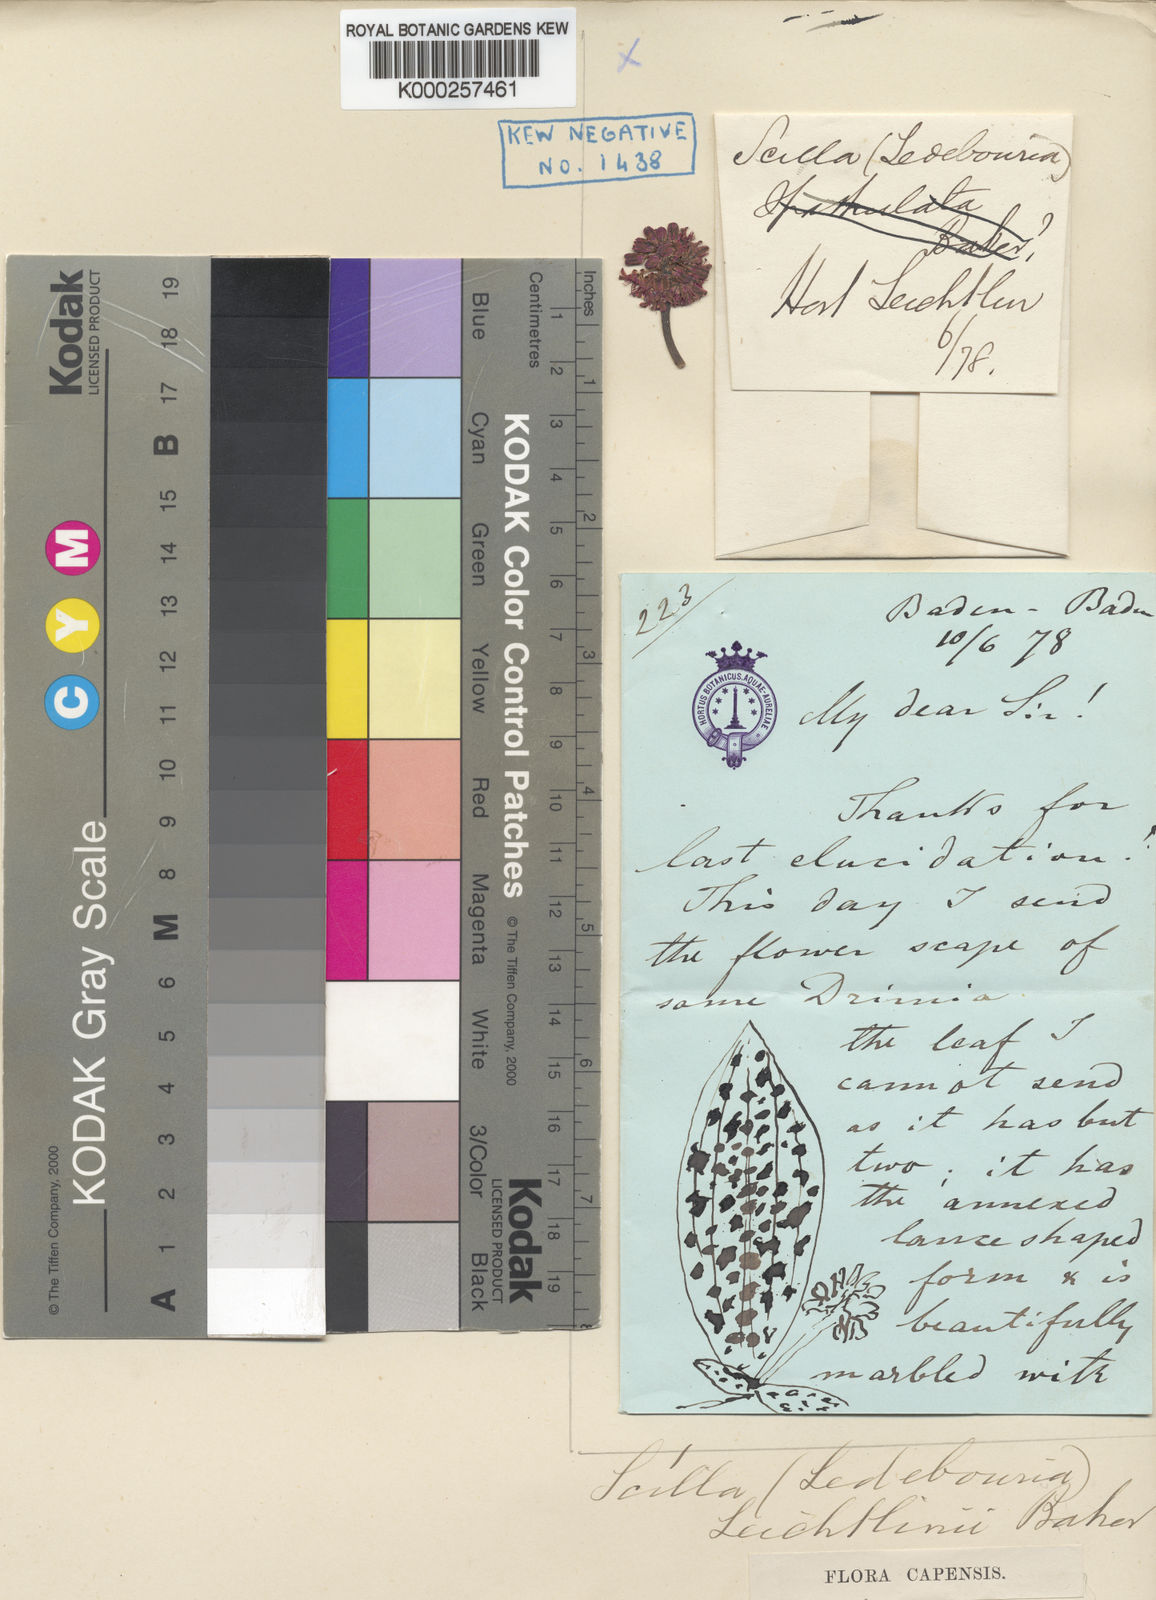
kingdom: Plantae
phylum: Tracheophyta
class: Liliopsida
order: Asparagales
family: Asparagaceae
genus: Ledebouria
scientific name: Ledebouria cooperi
